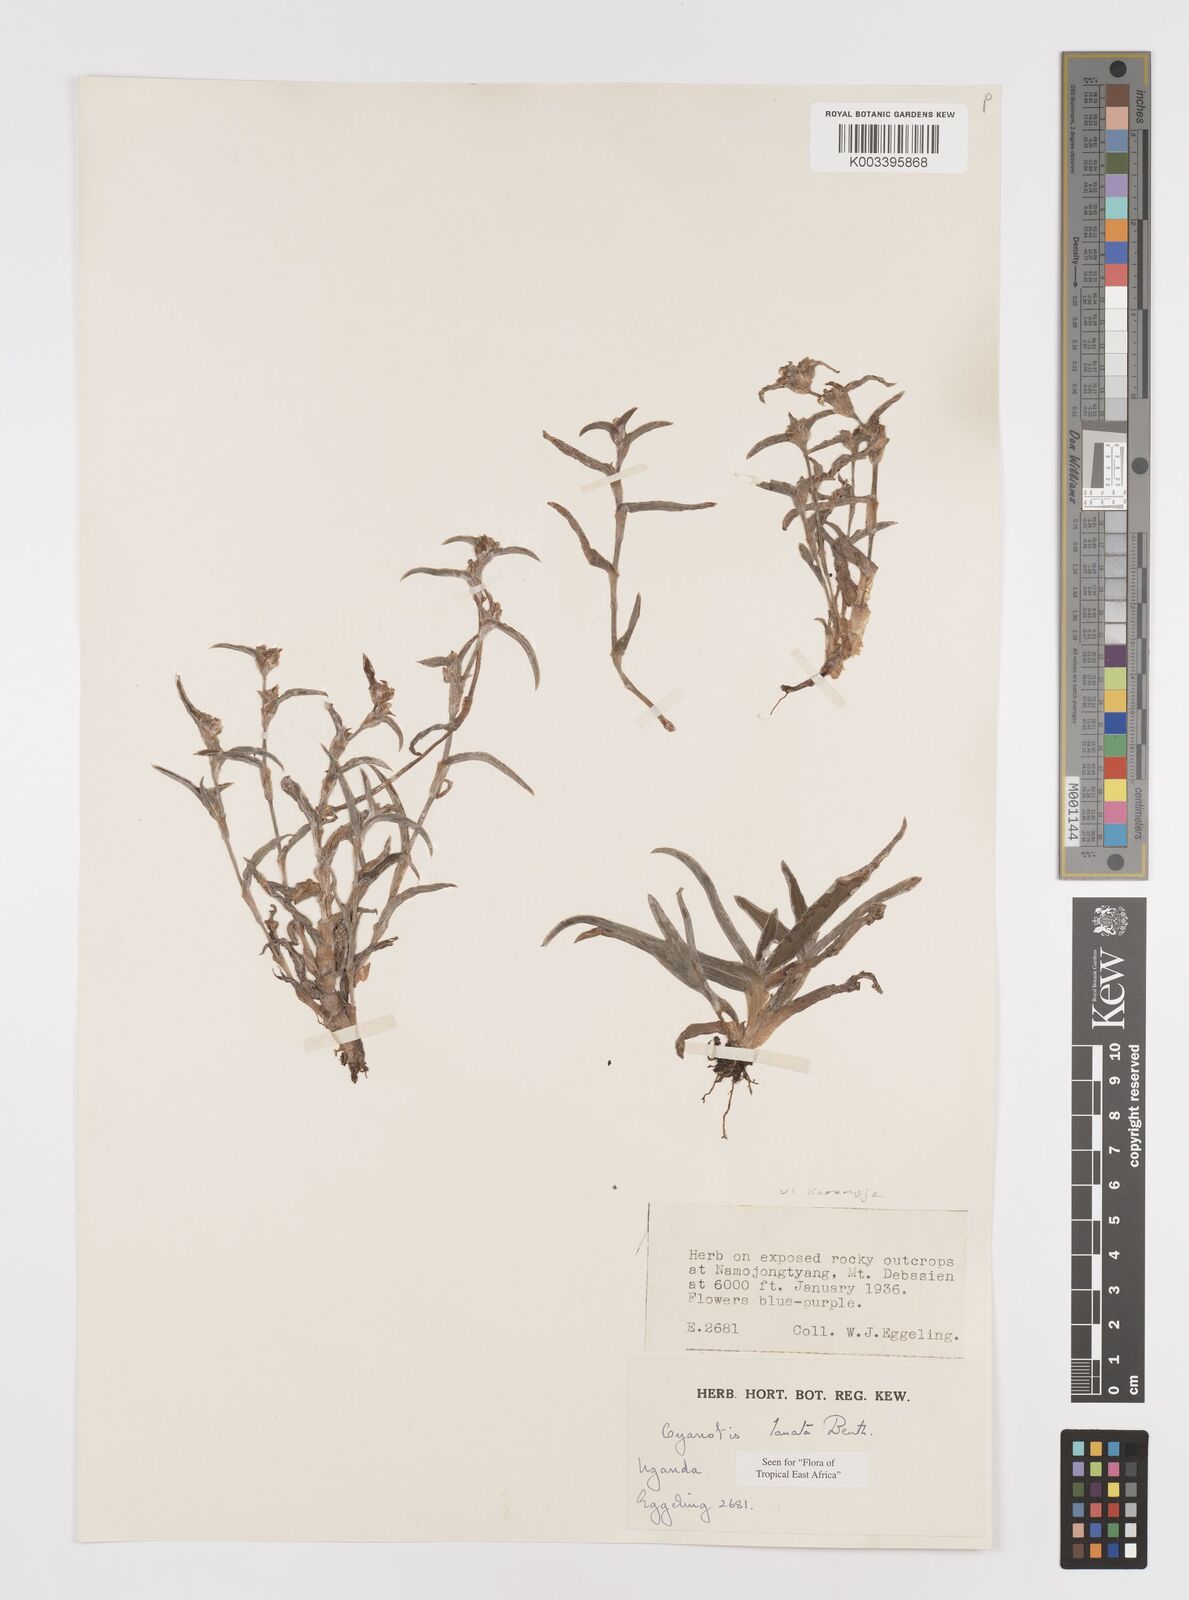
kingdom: Plantae
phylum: Tracheophyta
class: Liliopsida
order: Commelinales
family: Commelinaceae
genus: Cyanotis
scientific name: Cyanotis lanata
